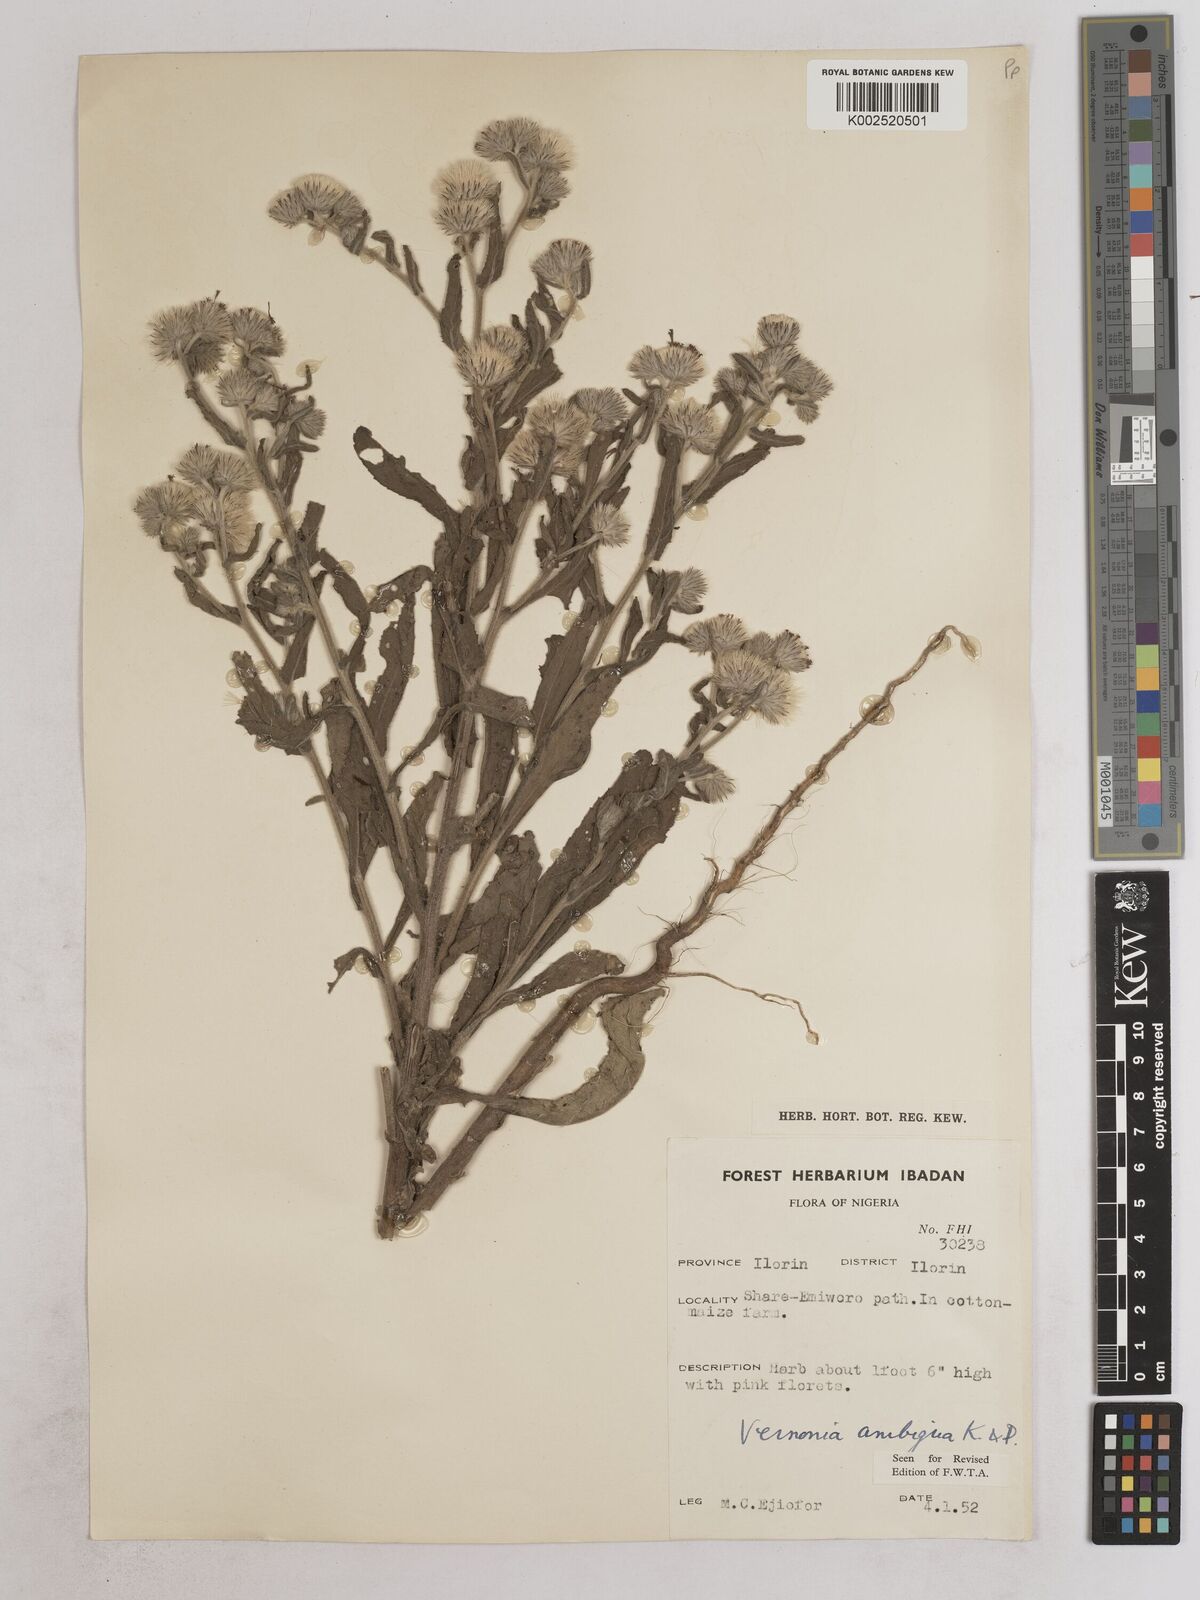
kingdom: Plantae
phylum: Tracheophyta
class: Magnoliopsida
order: Asterales
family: Asteraceae
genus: Vernoniastrum
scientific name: Vernoniastrum ambiguum
